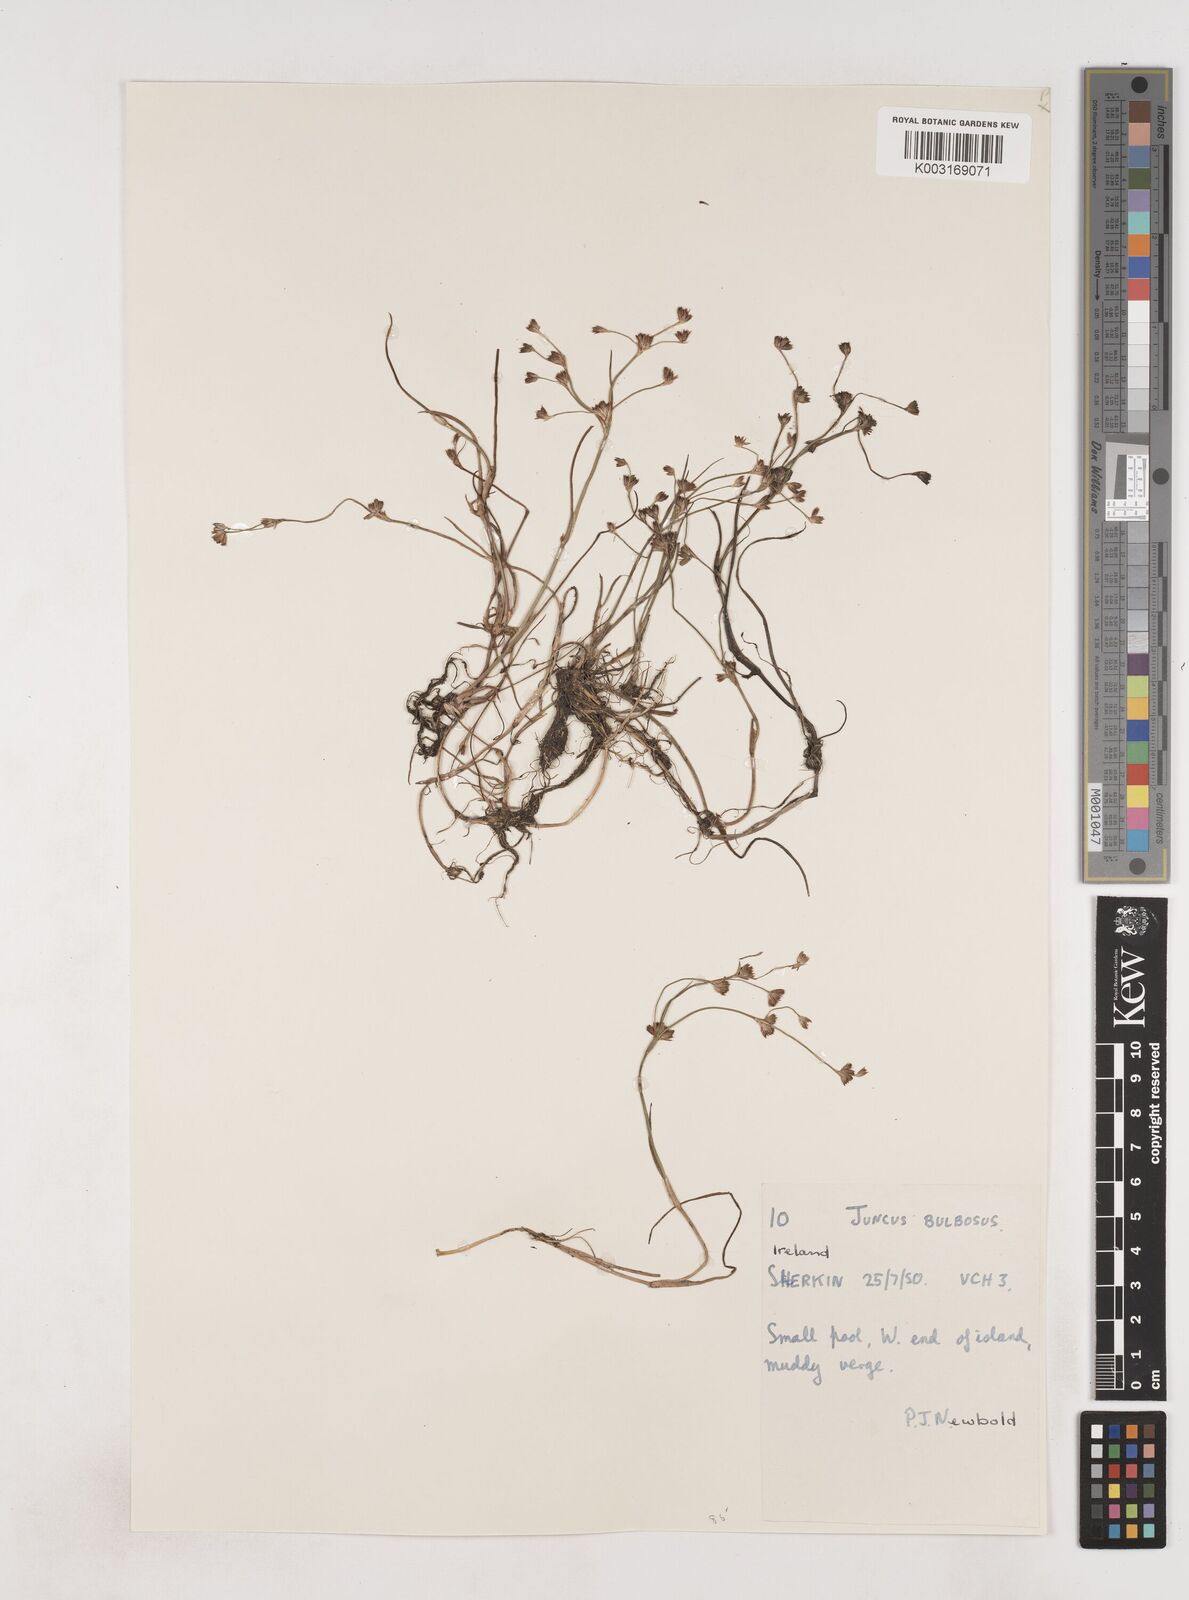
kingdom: Plantae
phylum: Tracheophyta
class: Liliopsida
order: Poales
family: Juncaceae
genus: Juncus
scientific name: Juncus bulbosus
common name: Bulbous rush
